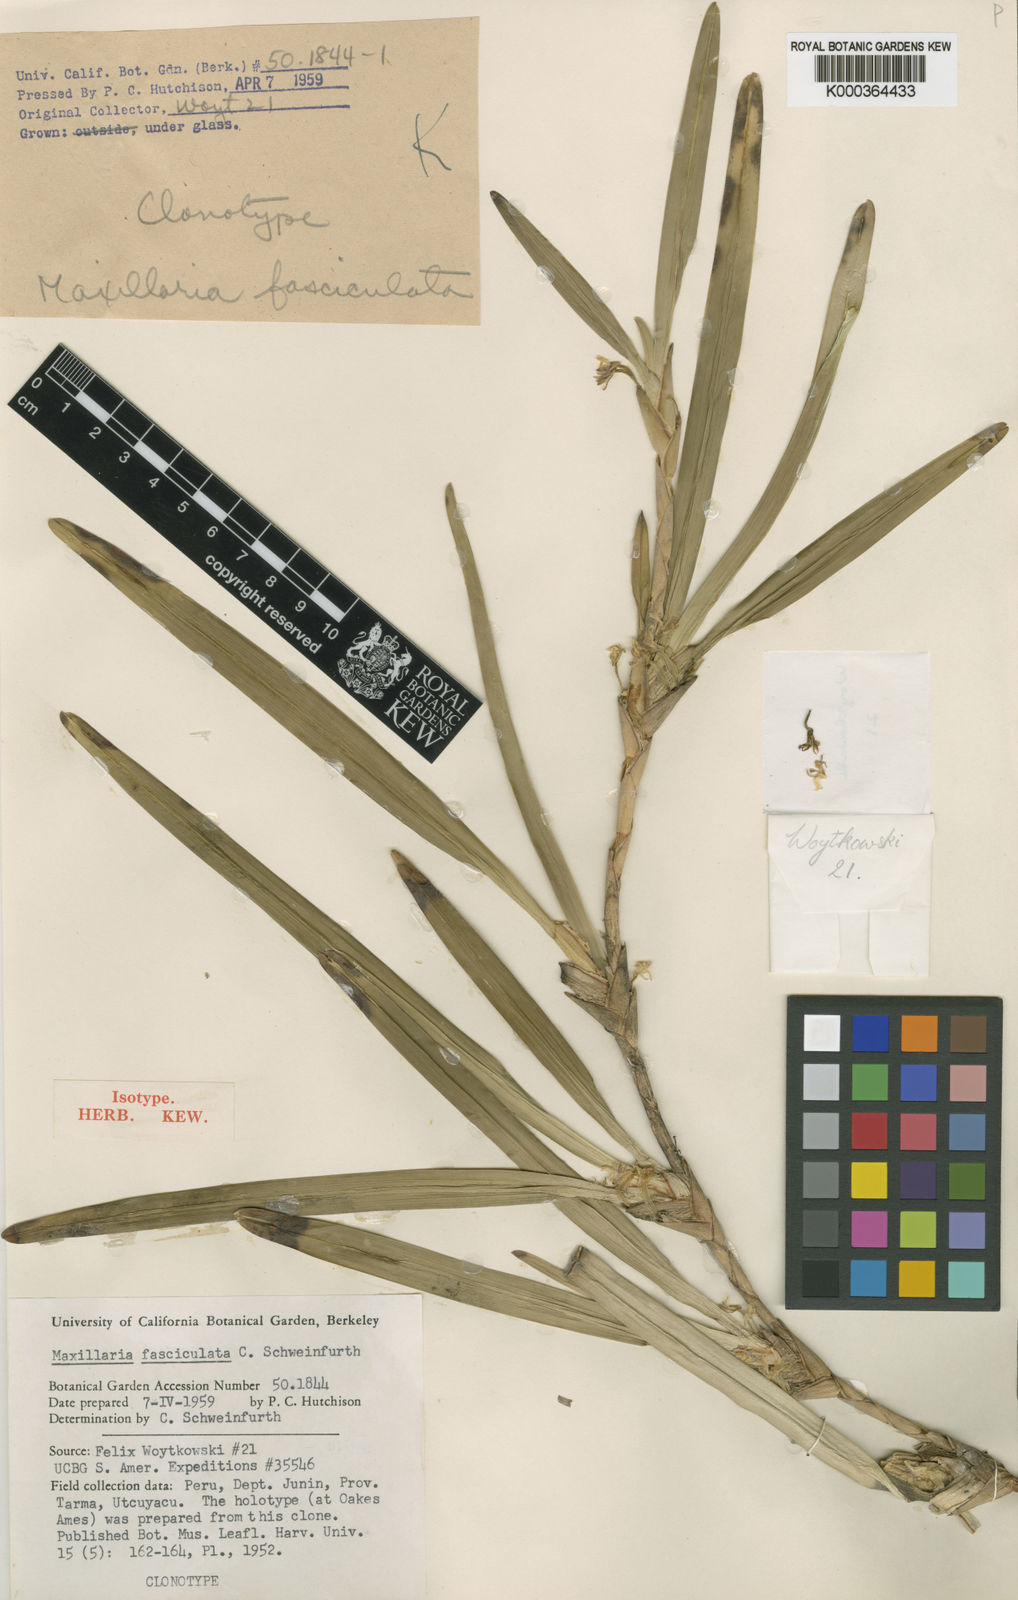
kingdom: Plantae
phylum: Tracheophyta
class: Liliopsida
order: Asparagales
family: Orchidaceae
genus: Maxillaria
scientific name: Maxillaria semiscabra
